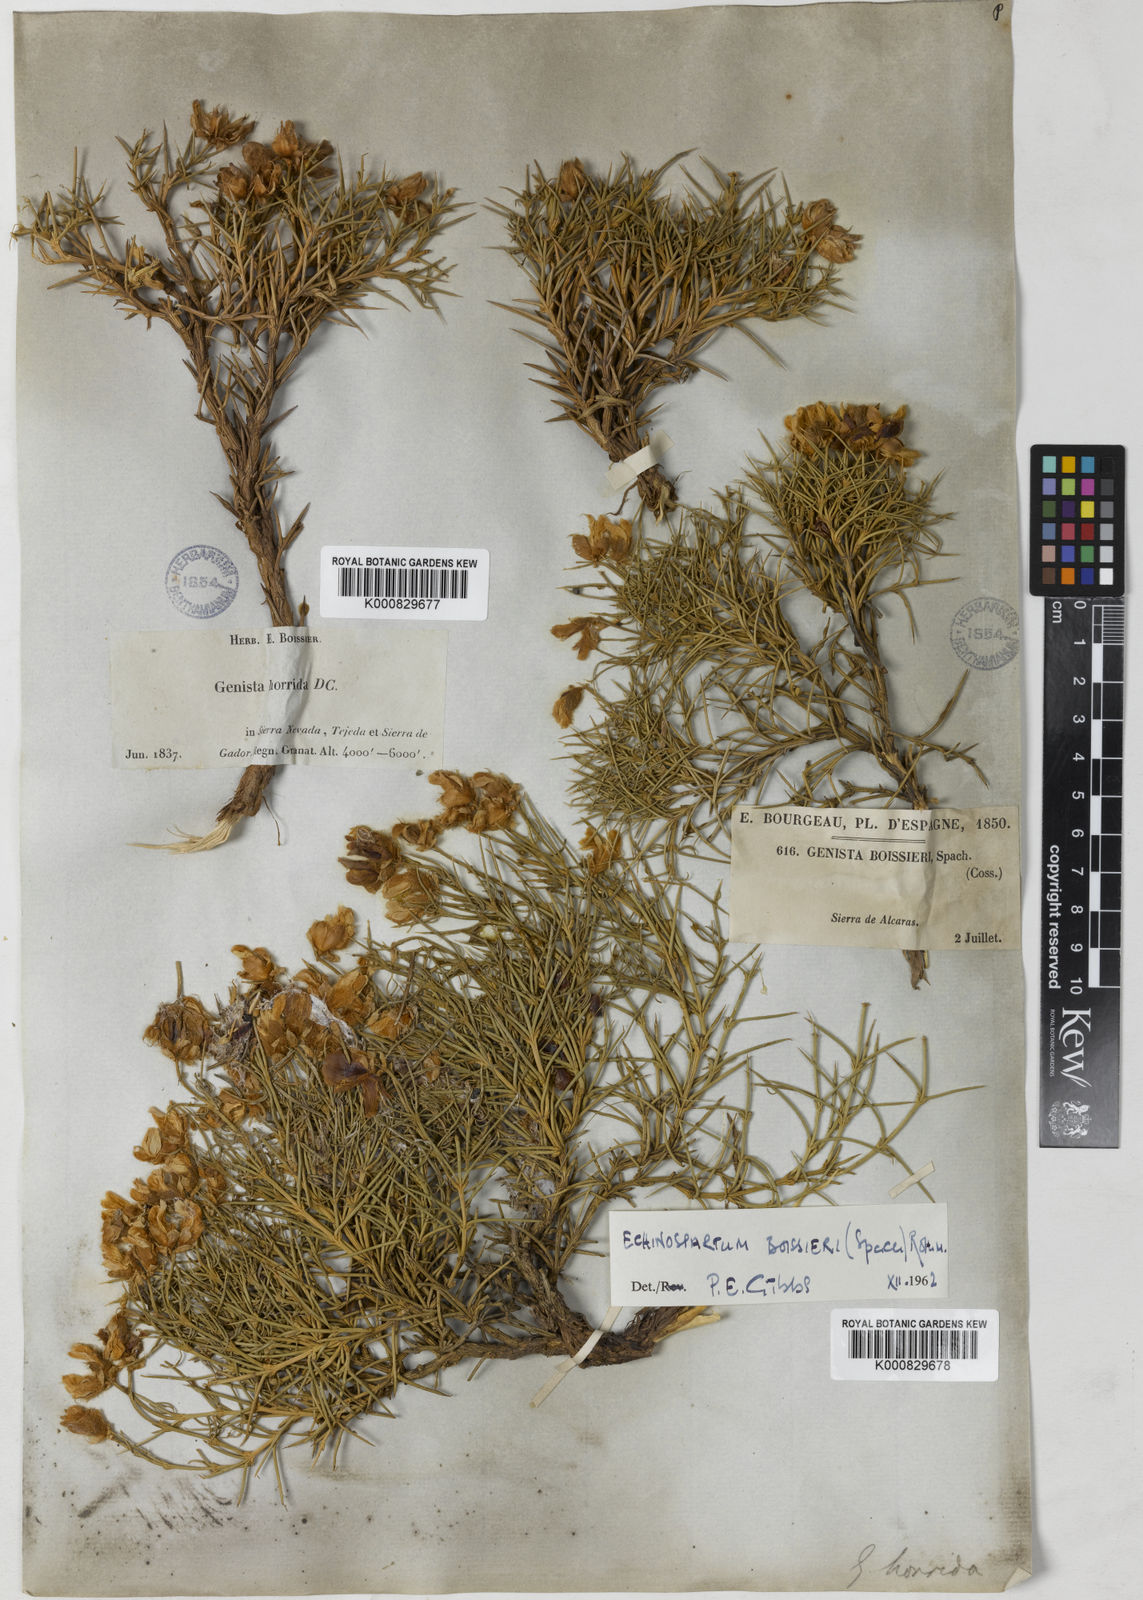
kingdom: Plantae
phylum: Tracheophyta
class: Magnoliopsida
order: Fabales
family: Fabaceae
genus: Echinospartum
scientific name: Echinospartum boissieri
